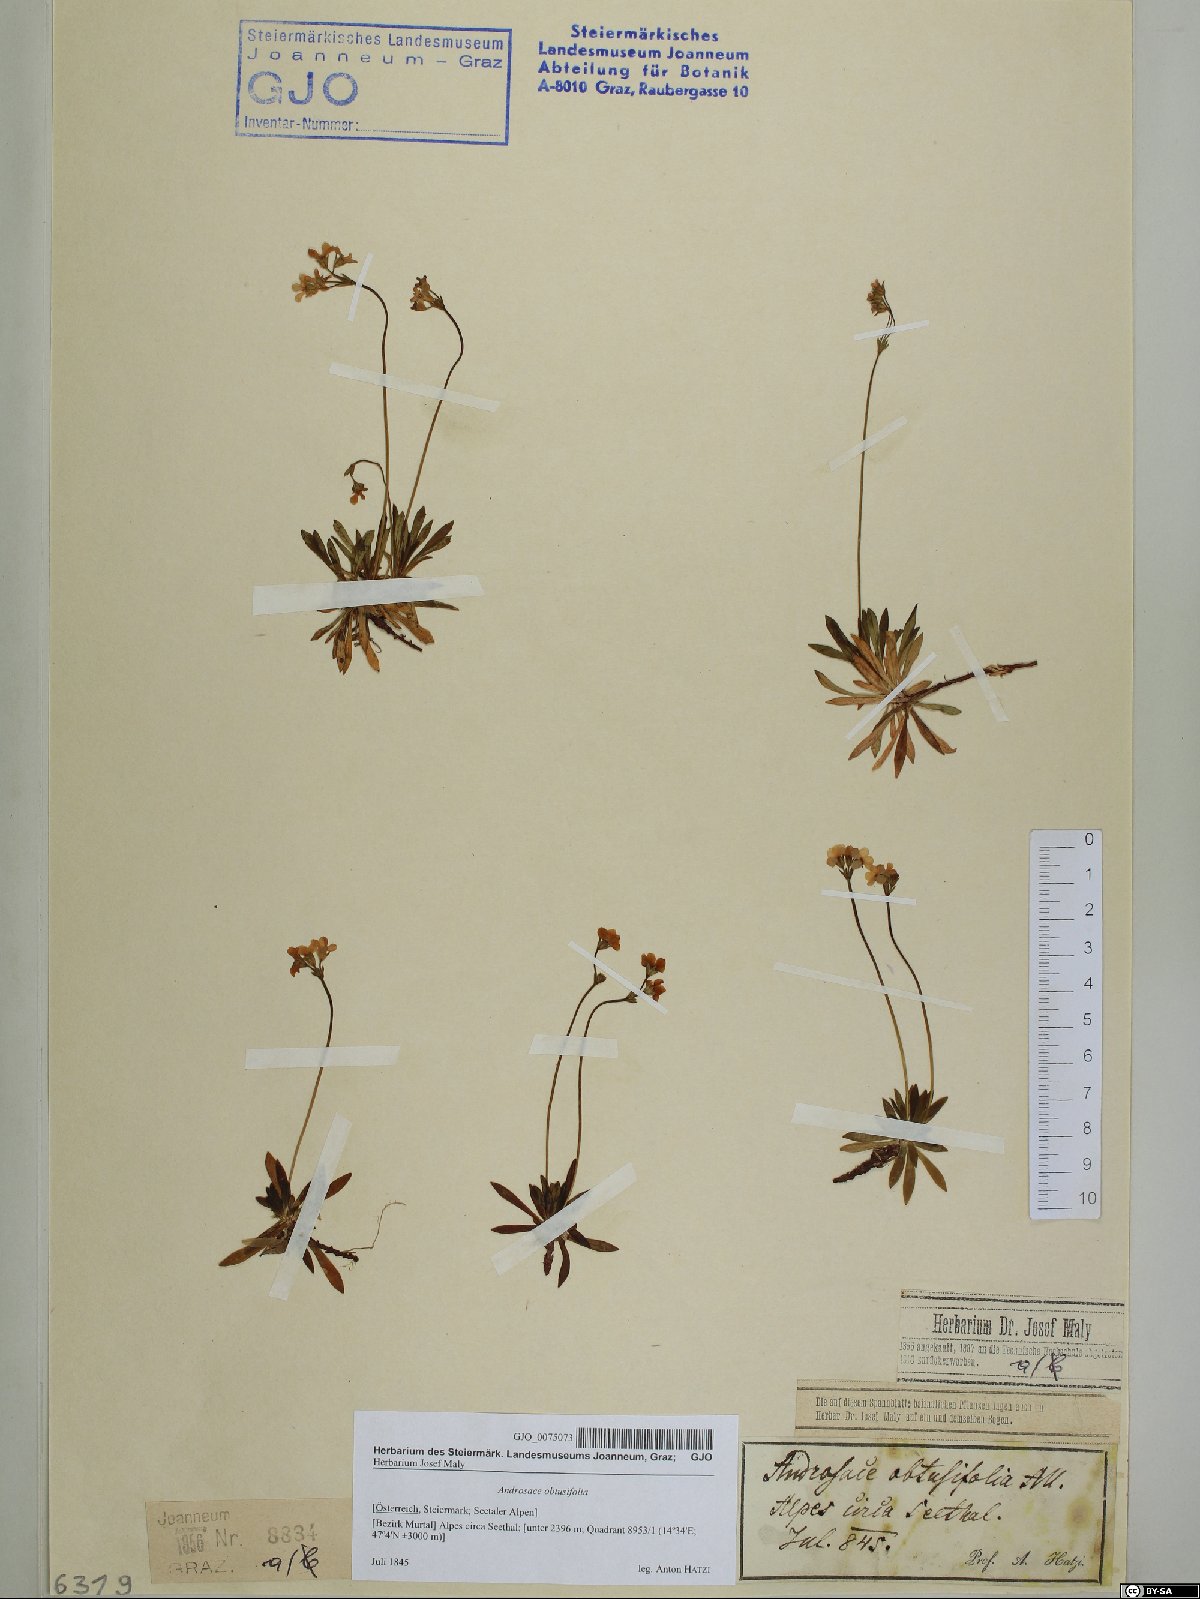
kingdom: Plantae
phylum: Tracheophyta
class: Magnoliopsida
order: Ericales
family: Primulaceae
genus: Androsace
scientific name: Androsace obtusifolia
